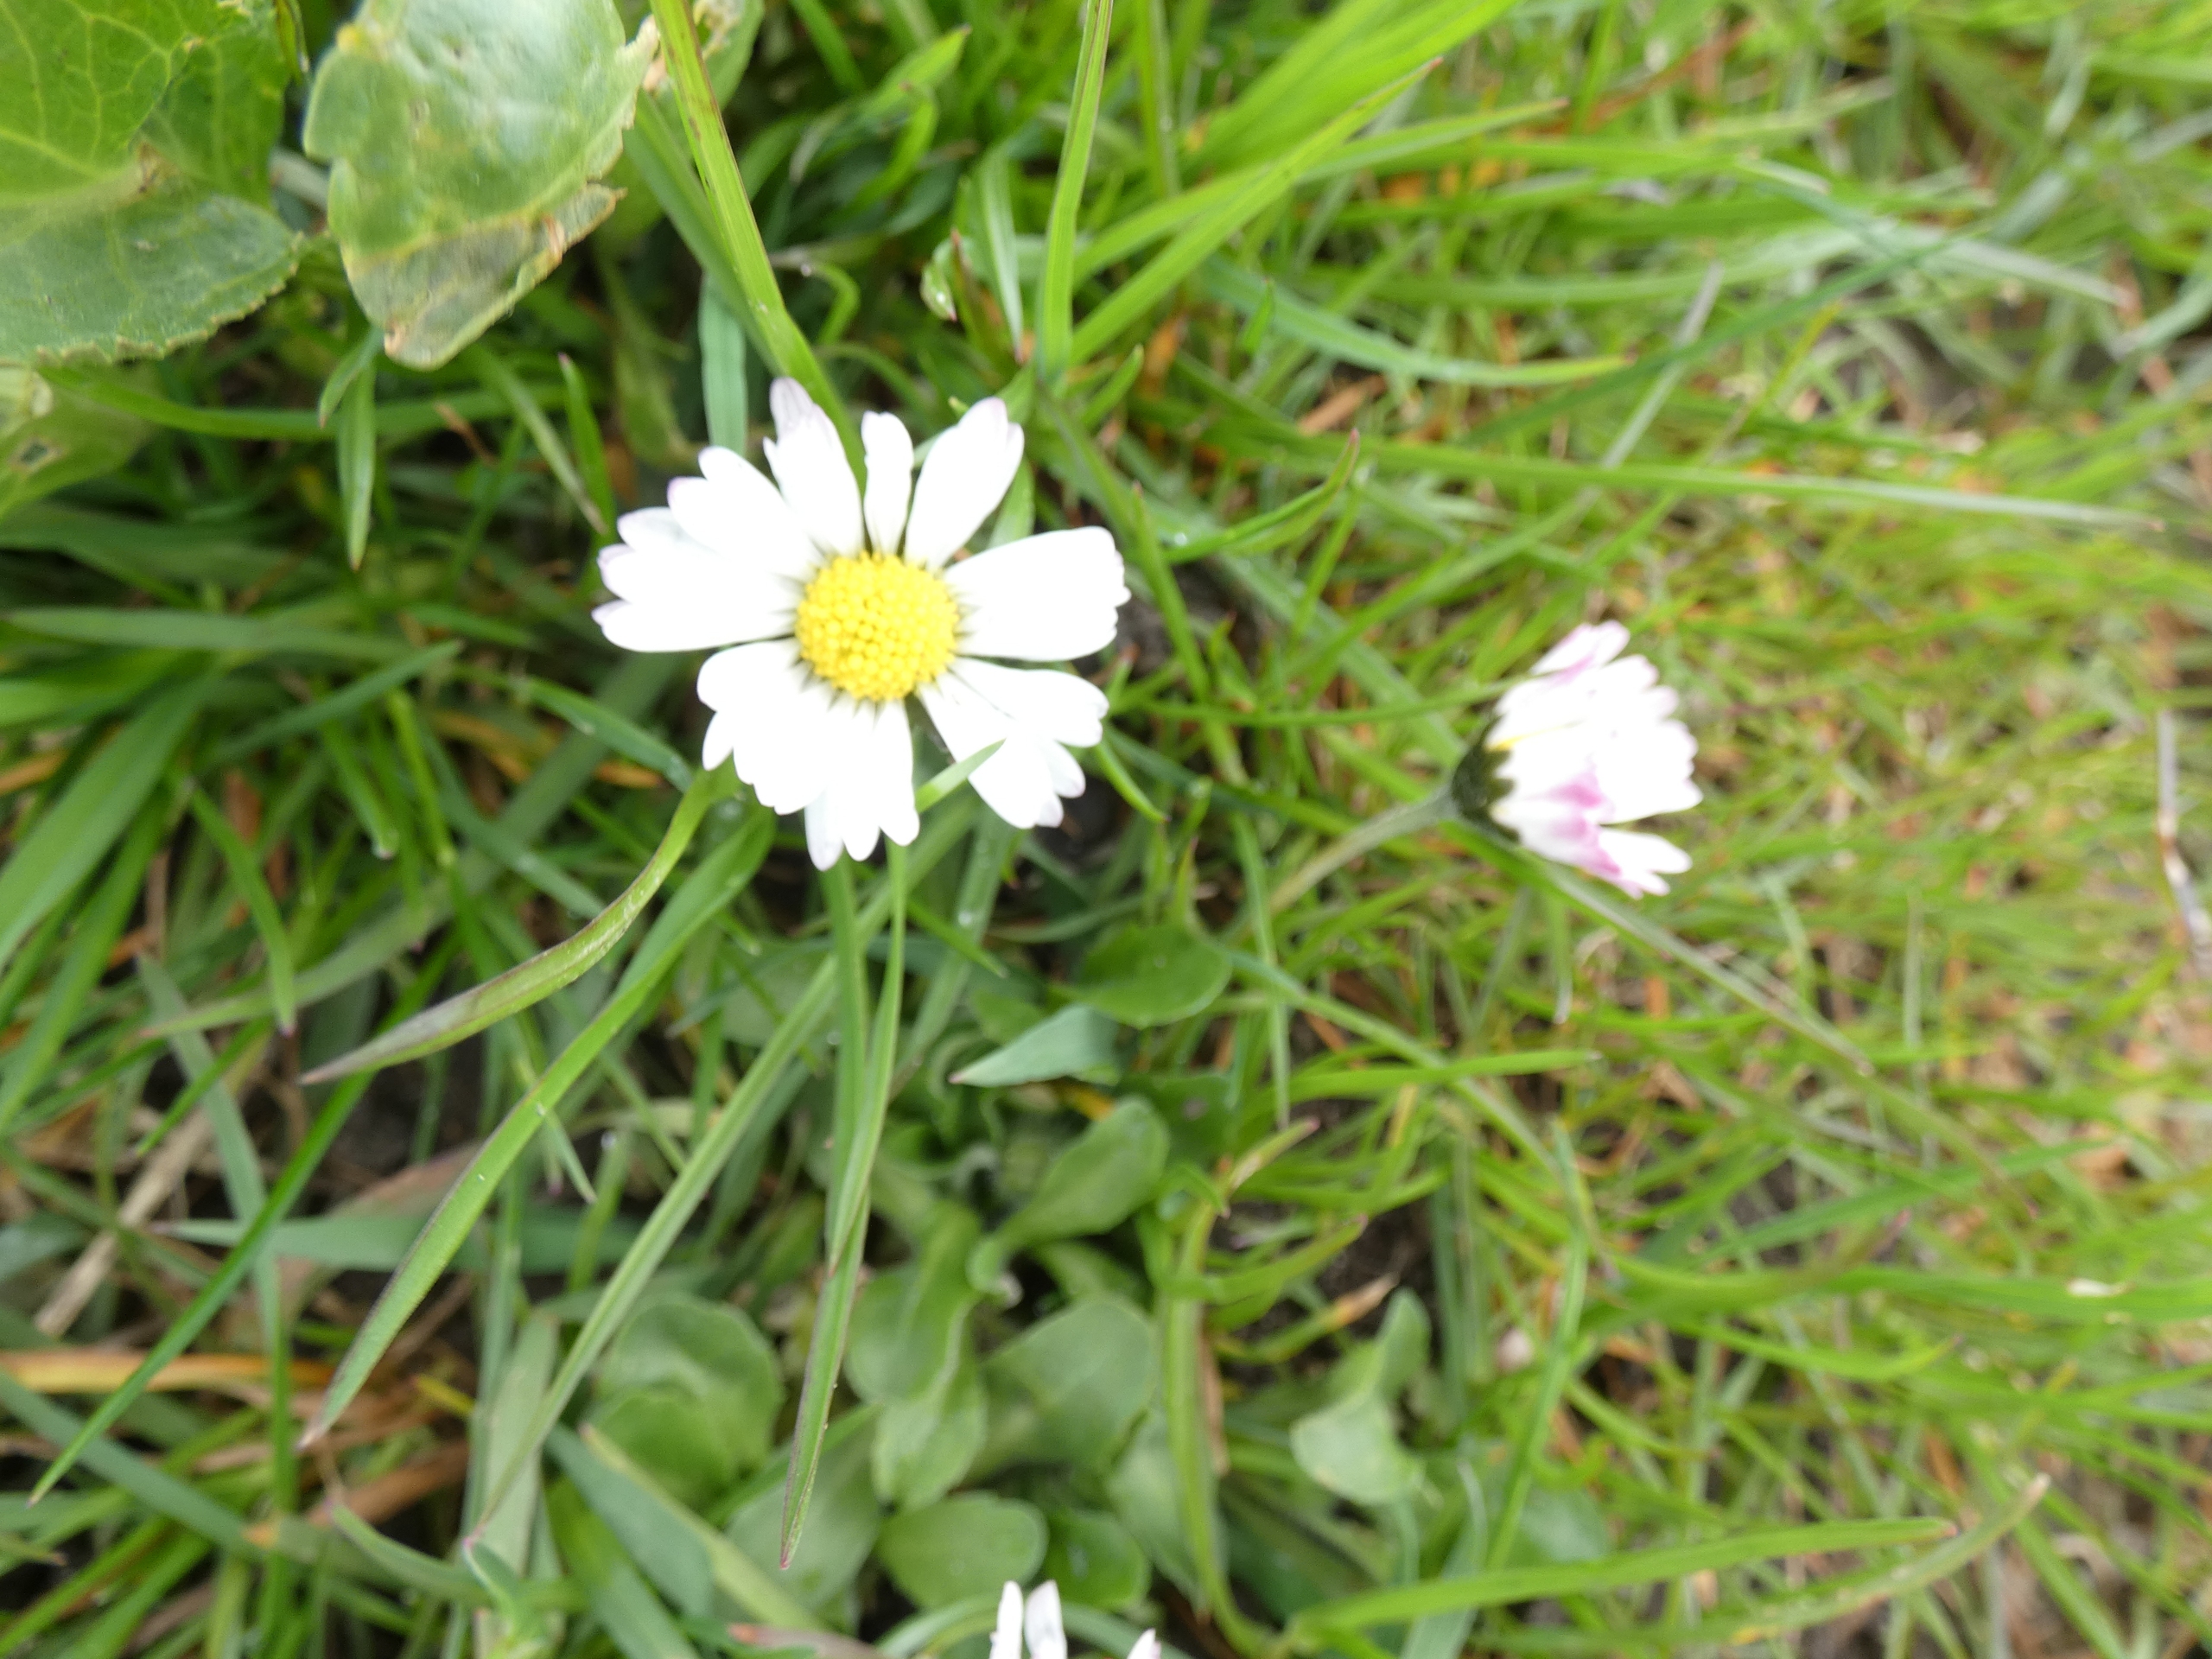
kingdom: Plantae
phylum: Tracheophyta
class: Magnoliopsida
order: Asterales
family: Asteraceae
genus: Bellis
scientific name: Bellis perennis
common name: Tusindfryd
